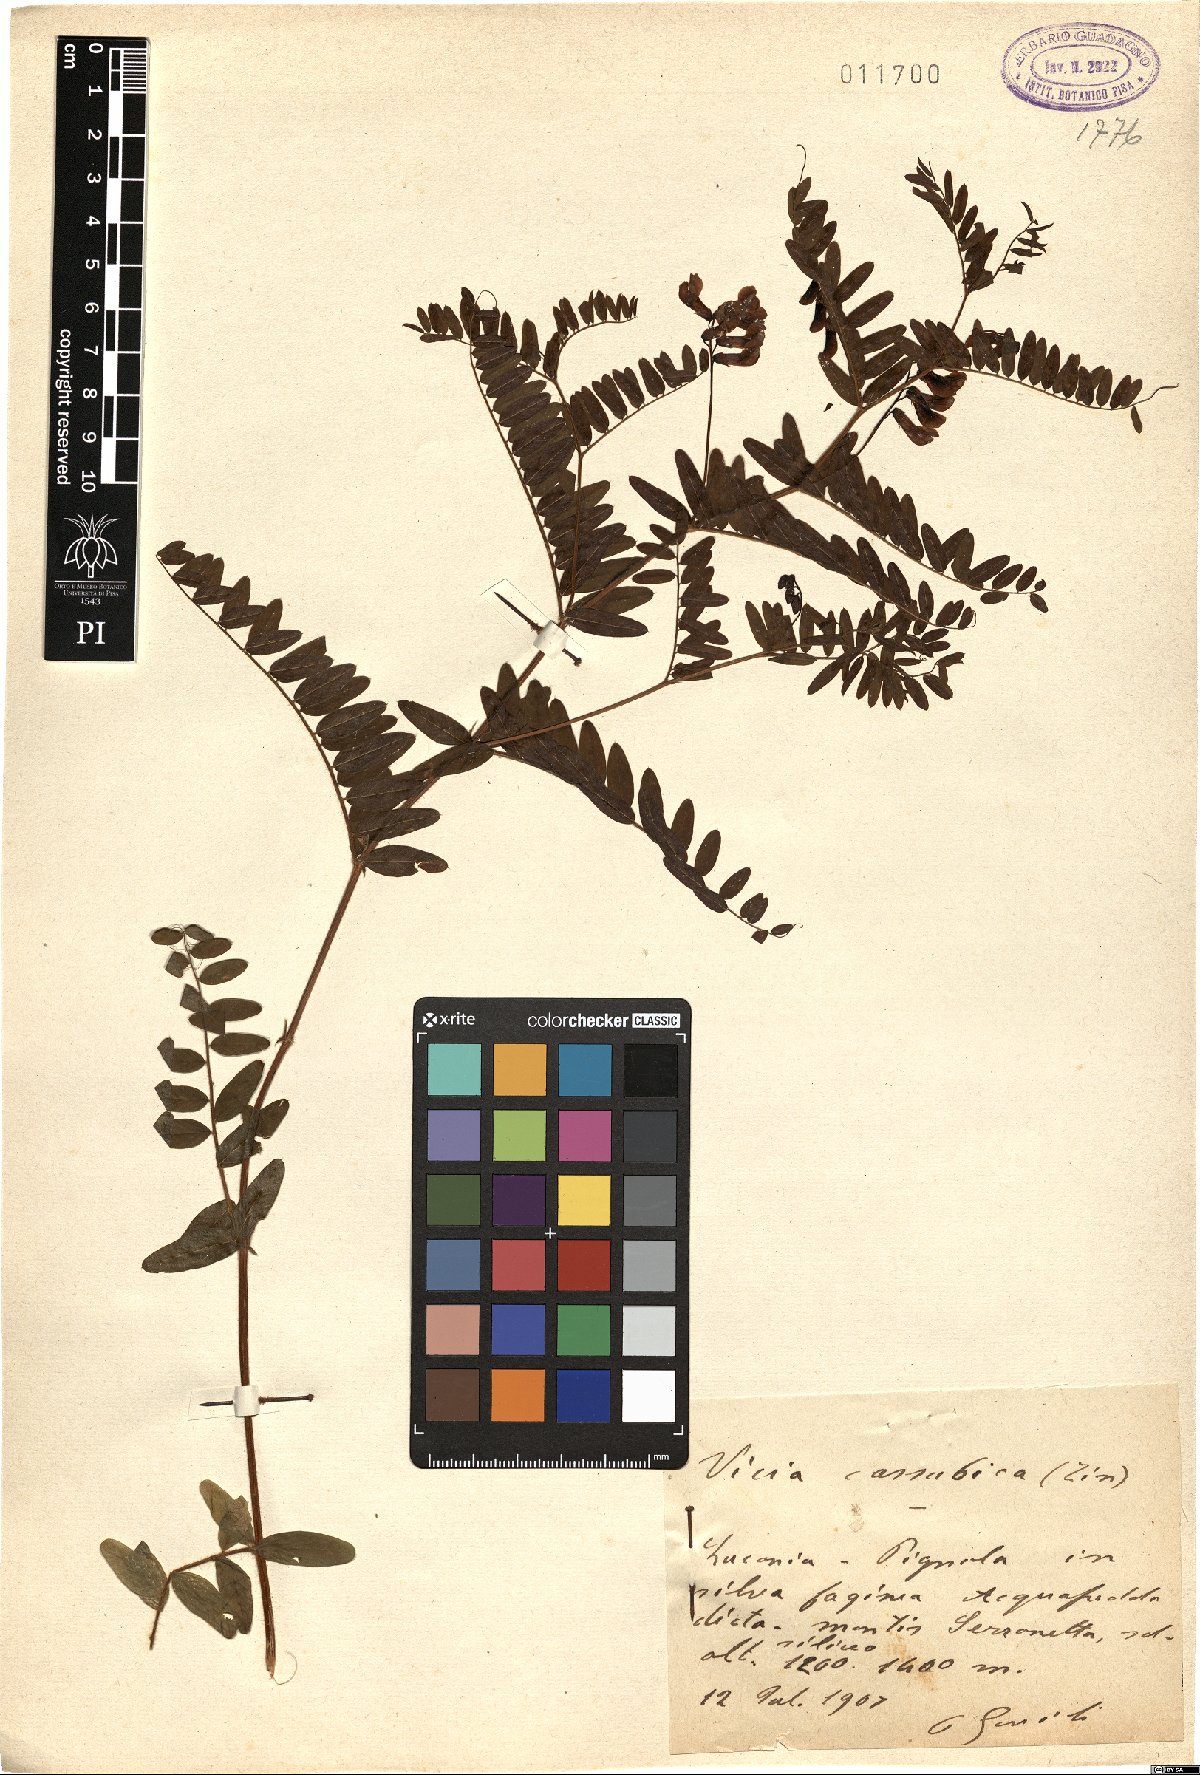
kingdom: Plantae
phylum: Tracheophyta
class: Magnoliopsida
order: Fabales
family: Fabaceae
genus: Vicia
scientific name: Vicia cassubica
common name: Danzig vetch
